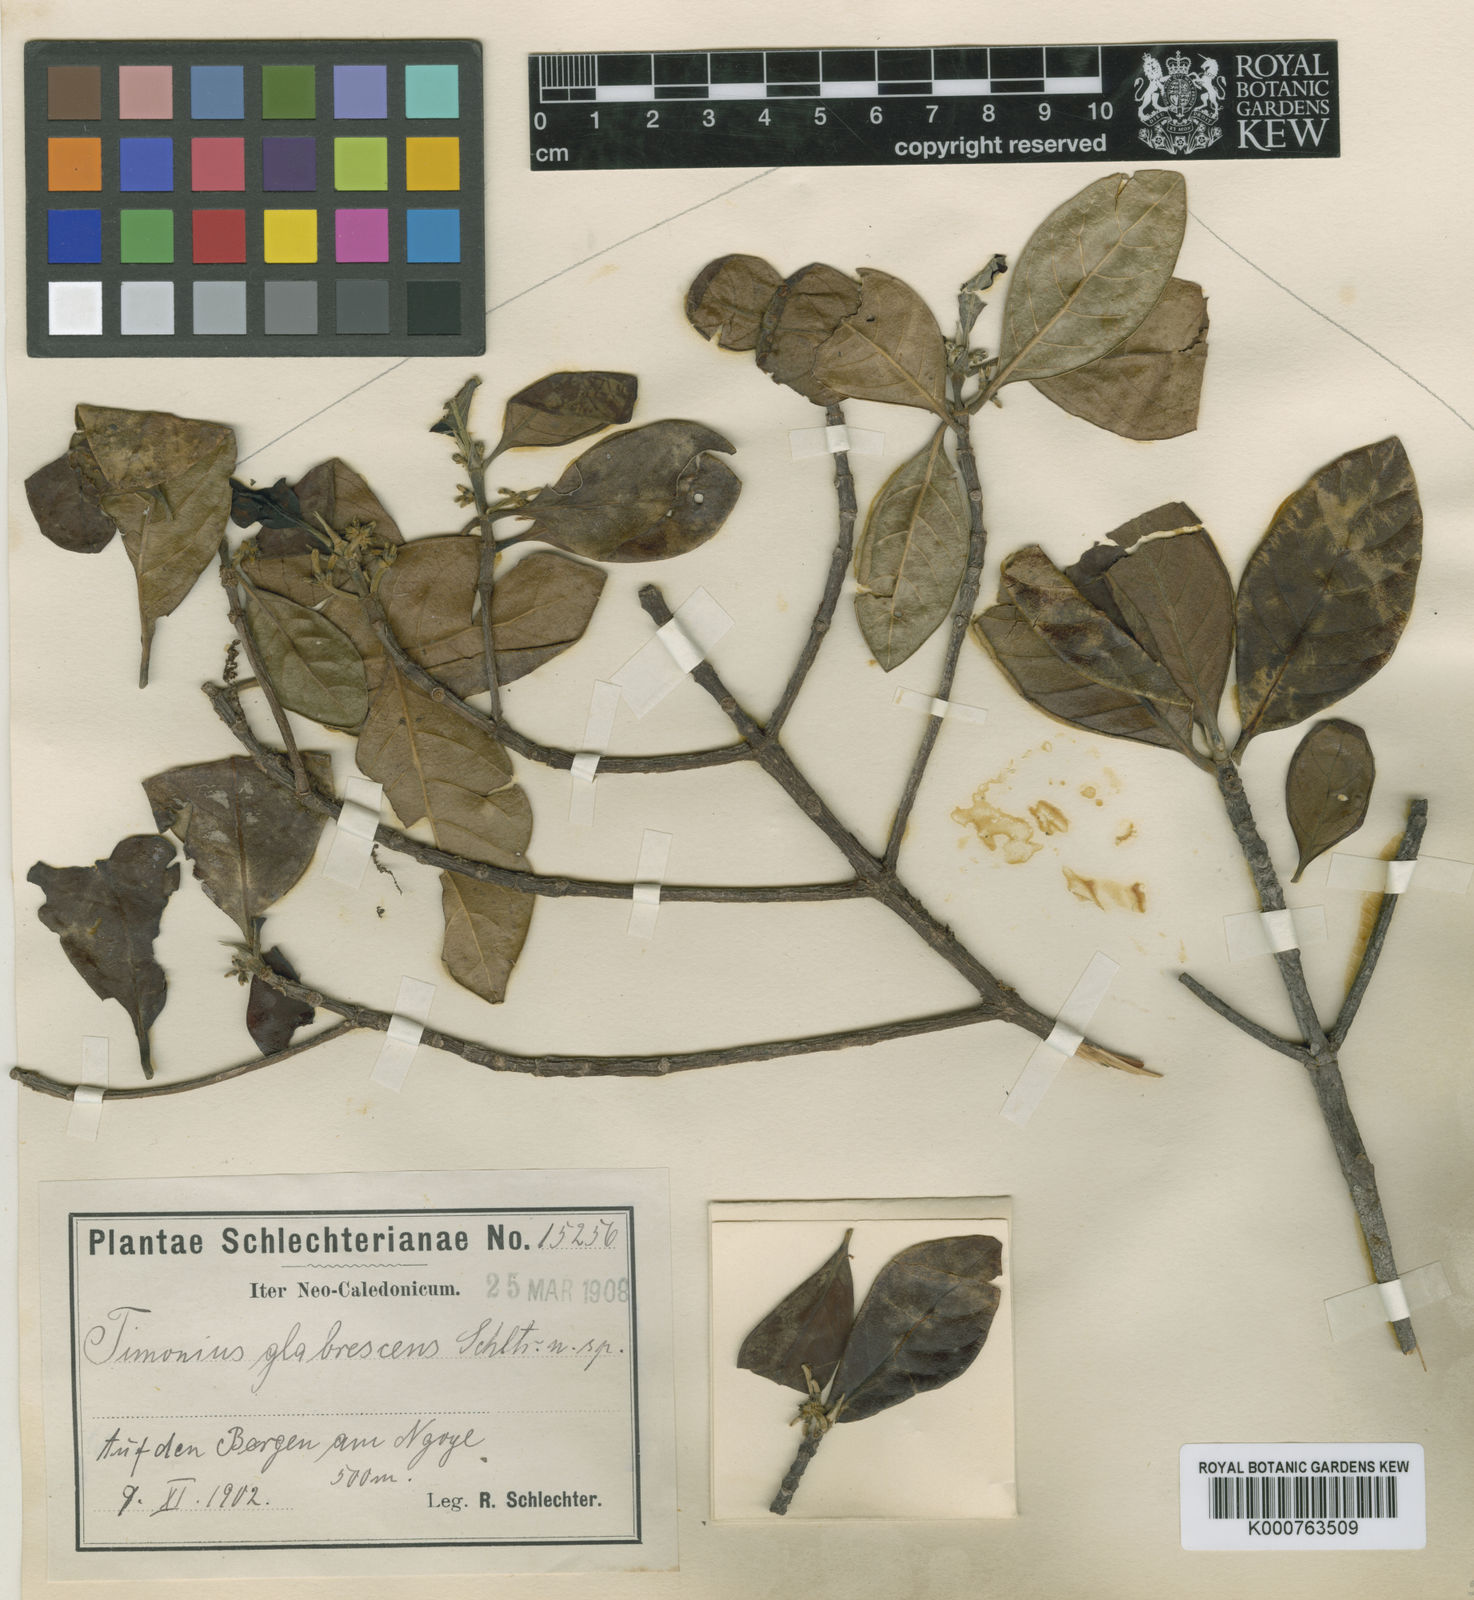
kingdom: Plantae
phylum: Tracheophyta
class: Magnoliopsida
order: Gentianales
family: Rubiaceae
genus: Achilleanthus
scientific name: Achilleanthus glabrescens
